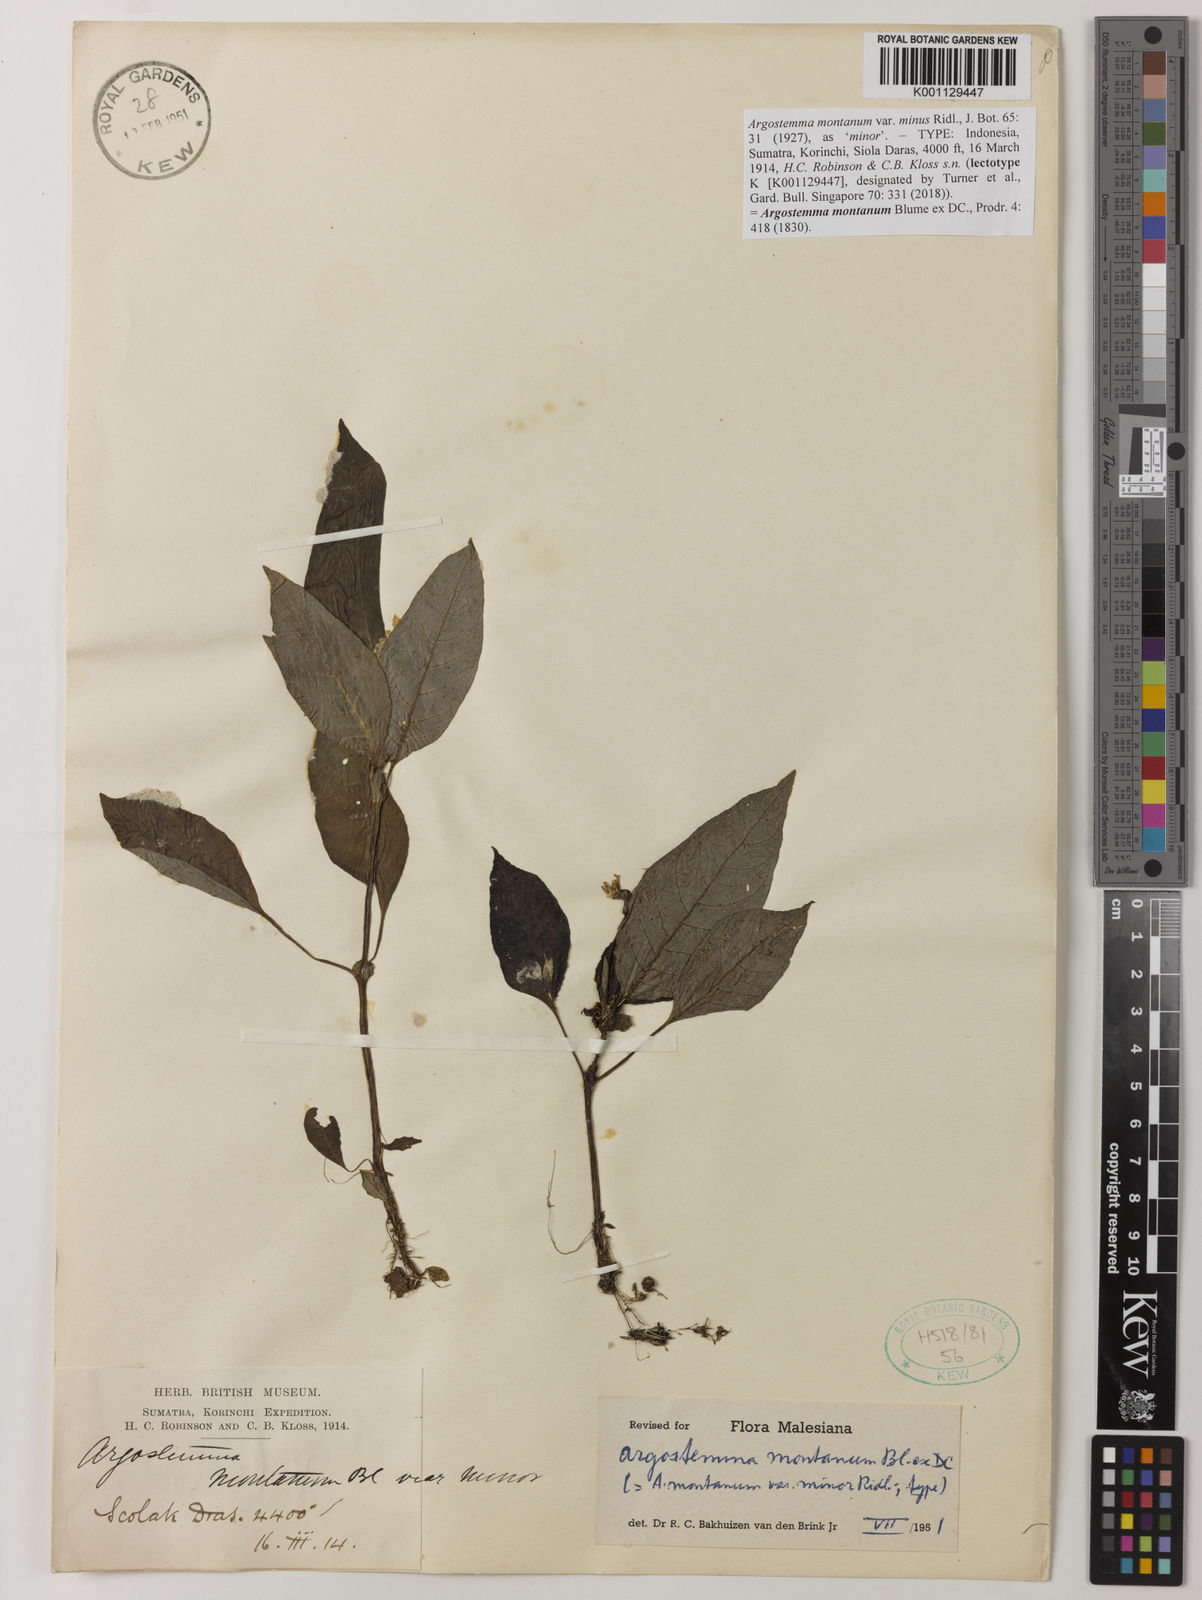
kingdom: Plantae
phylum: Tracheophyta
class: Magnoliopsida
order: Gentianales
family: Rubiaceae
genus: Argostemma
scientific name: Argostemma montanum
